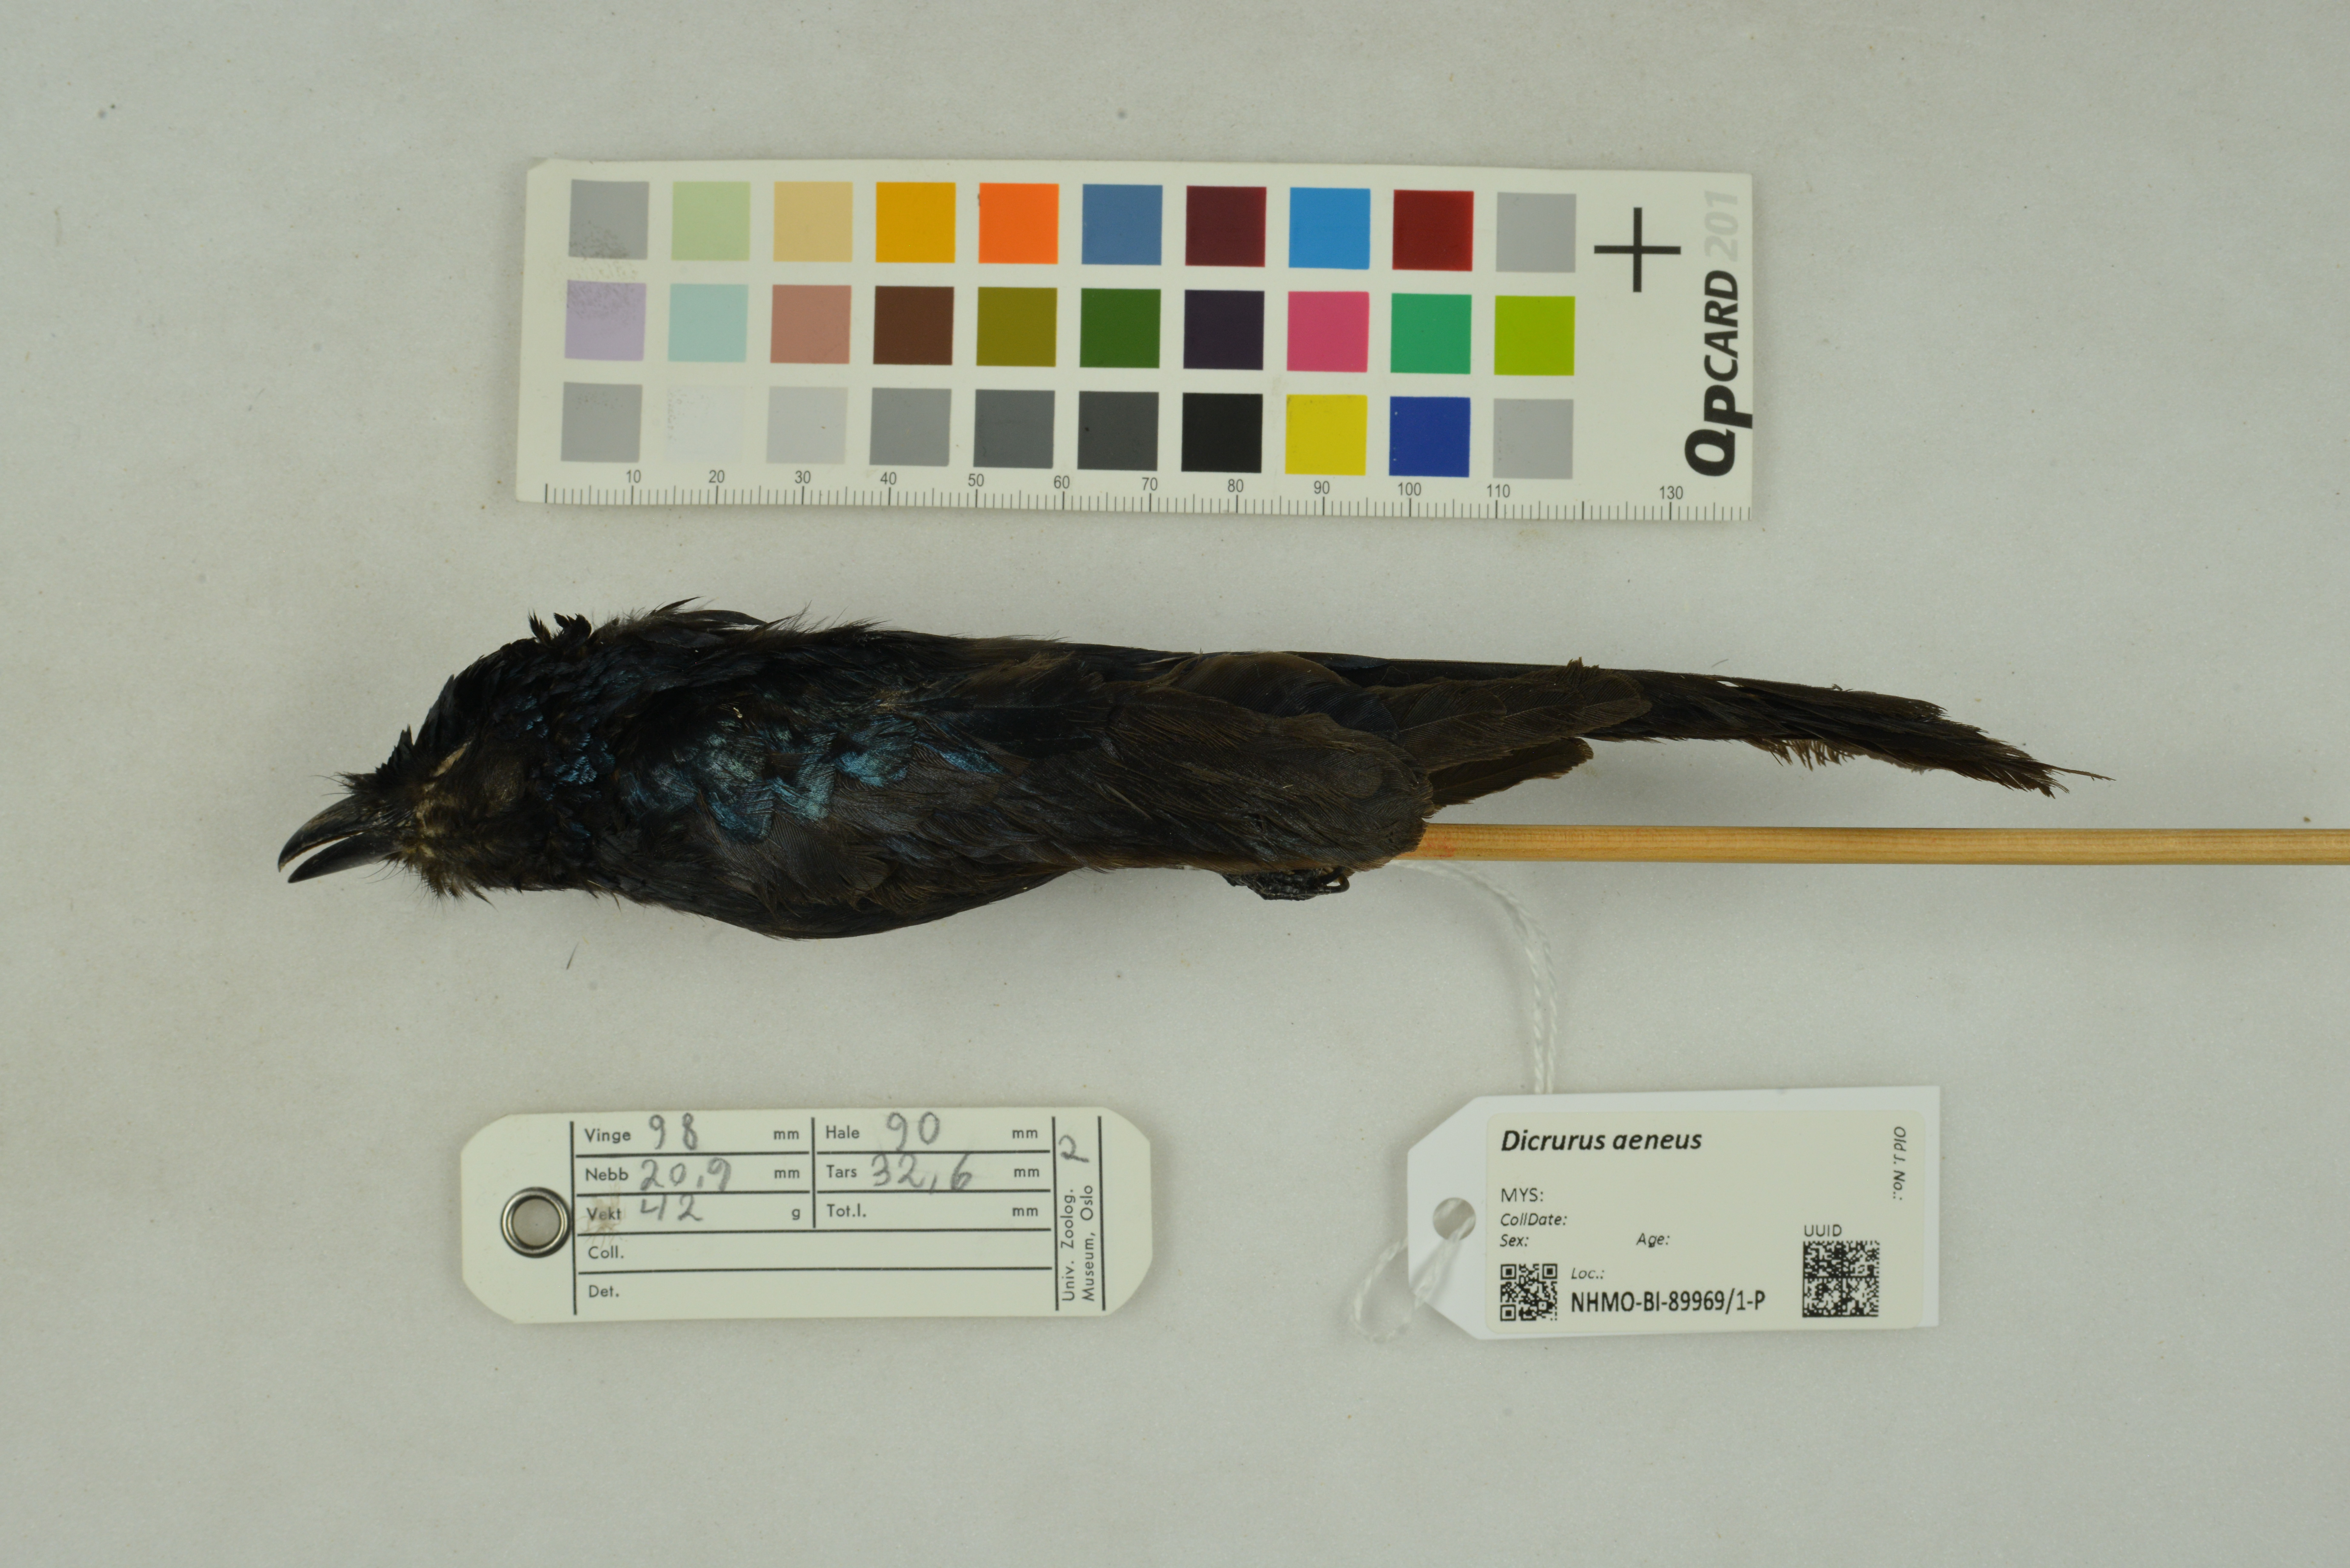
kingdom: Animalia
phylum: Chordata
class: Aves
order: Passeriformes
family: Dicruridae
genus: Dicrurus
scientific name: Dicrurus aeneus
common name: Bronzed drongo
